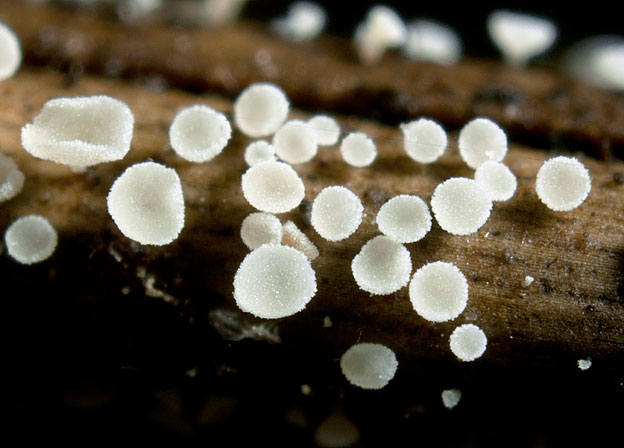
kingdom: Fungi
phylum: Ascomycota
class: Leotiomycetes
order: Helotiales
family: Hyaloscyphaceae
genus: Cistella
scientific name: Cistella acuum
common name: nåle-sirskive
